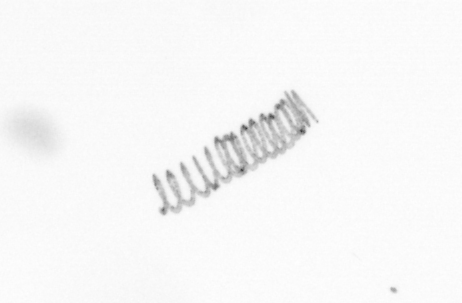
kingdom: Chromista
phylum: Ochrophyta
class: Bacillariophyceae
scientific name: Bacillariophyceae
